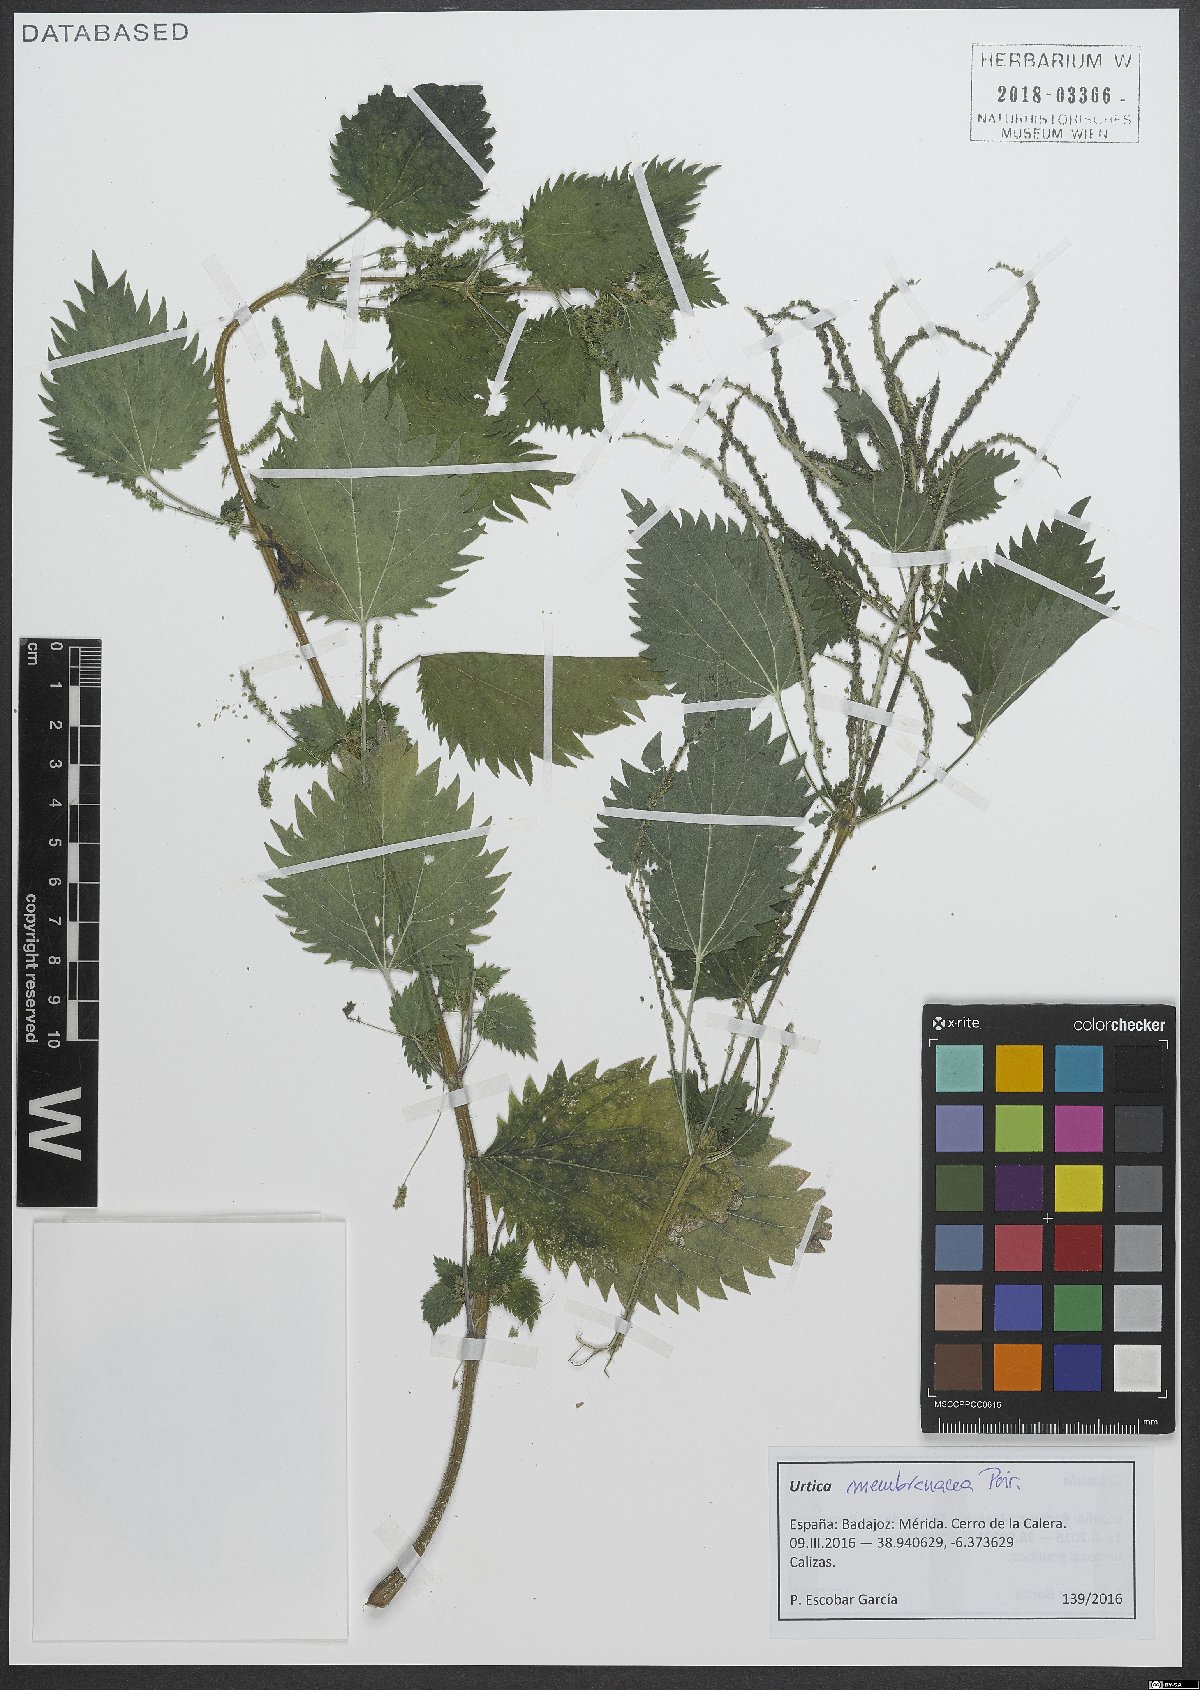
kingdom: Plantae
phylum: Tracheophyta
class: Magnoliopsida
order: Rosales
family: Urticaceae
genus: Urtica
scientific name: Urtica membranacea
